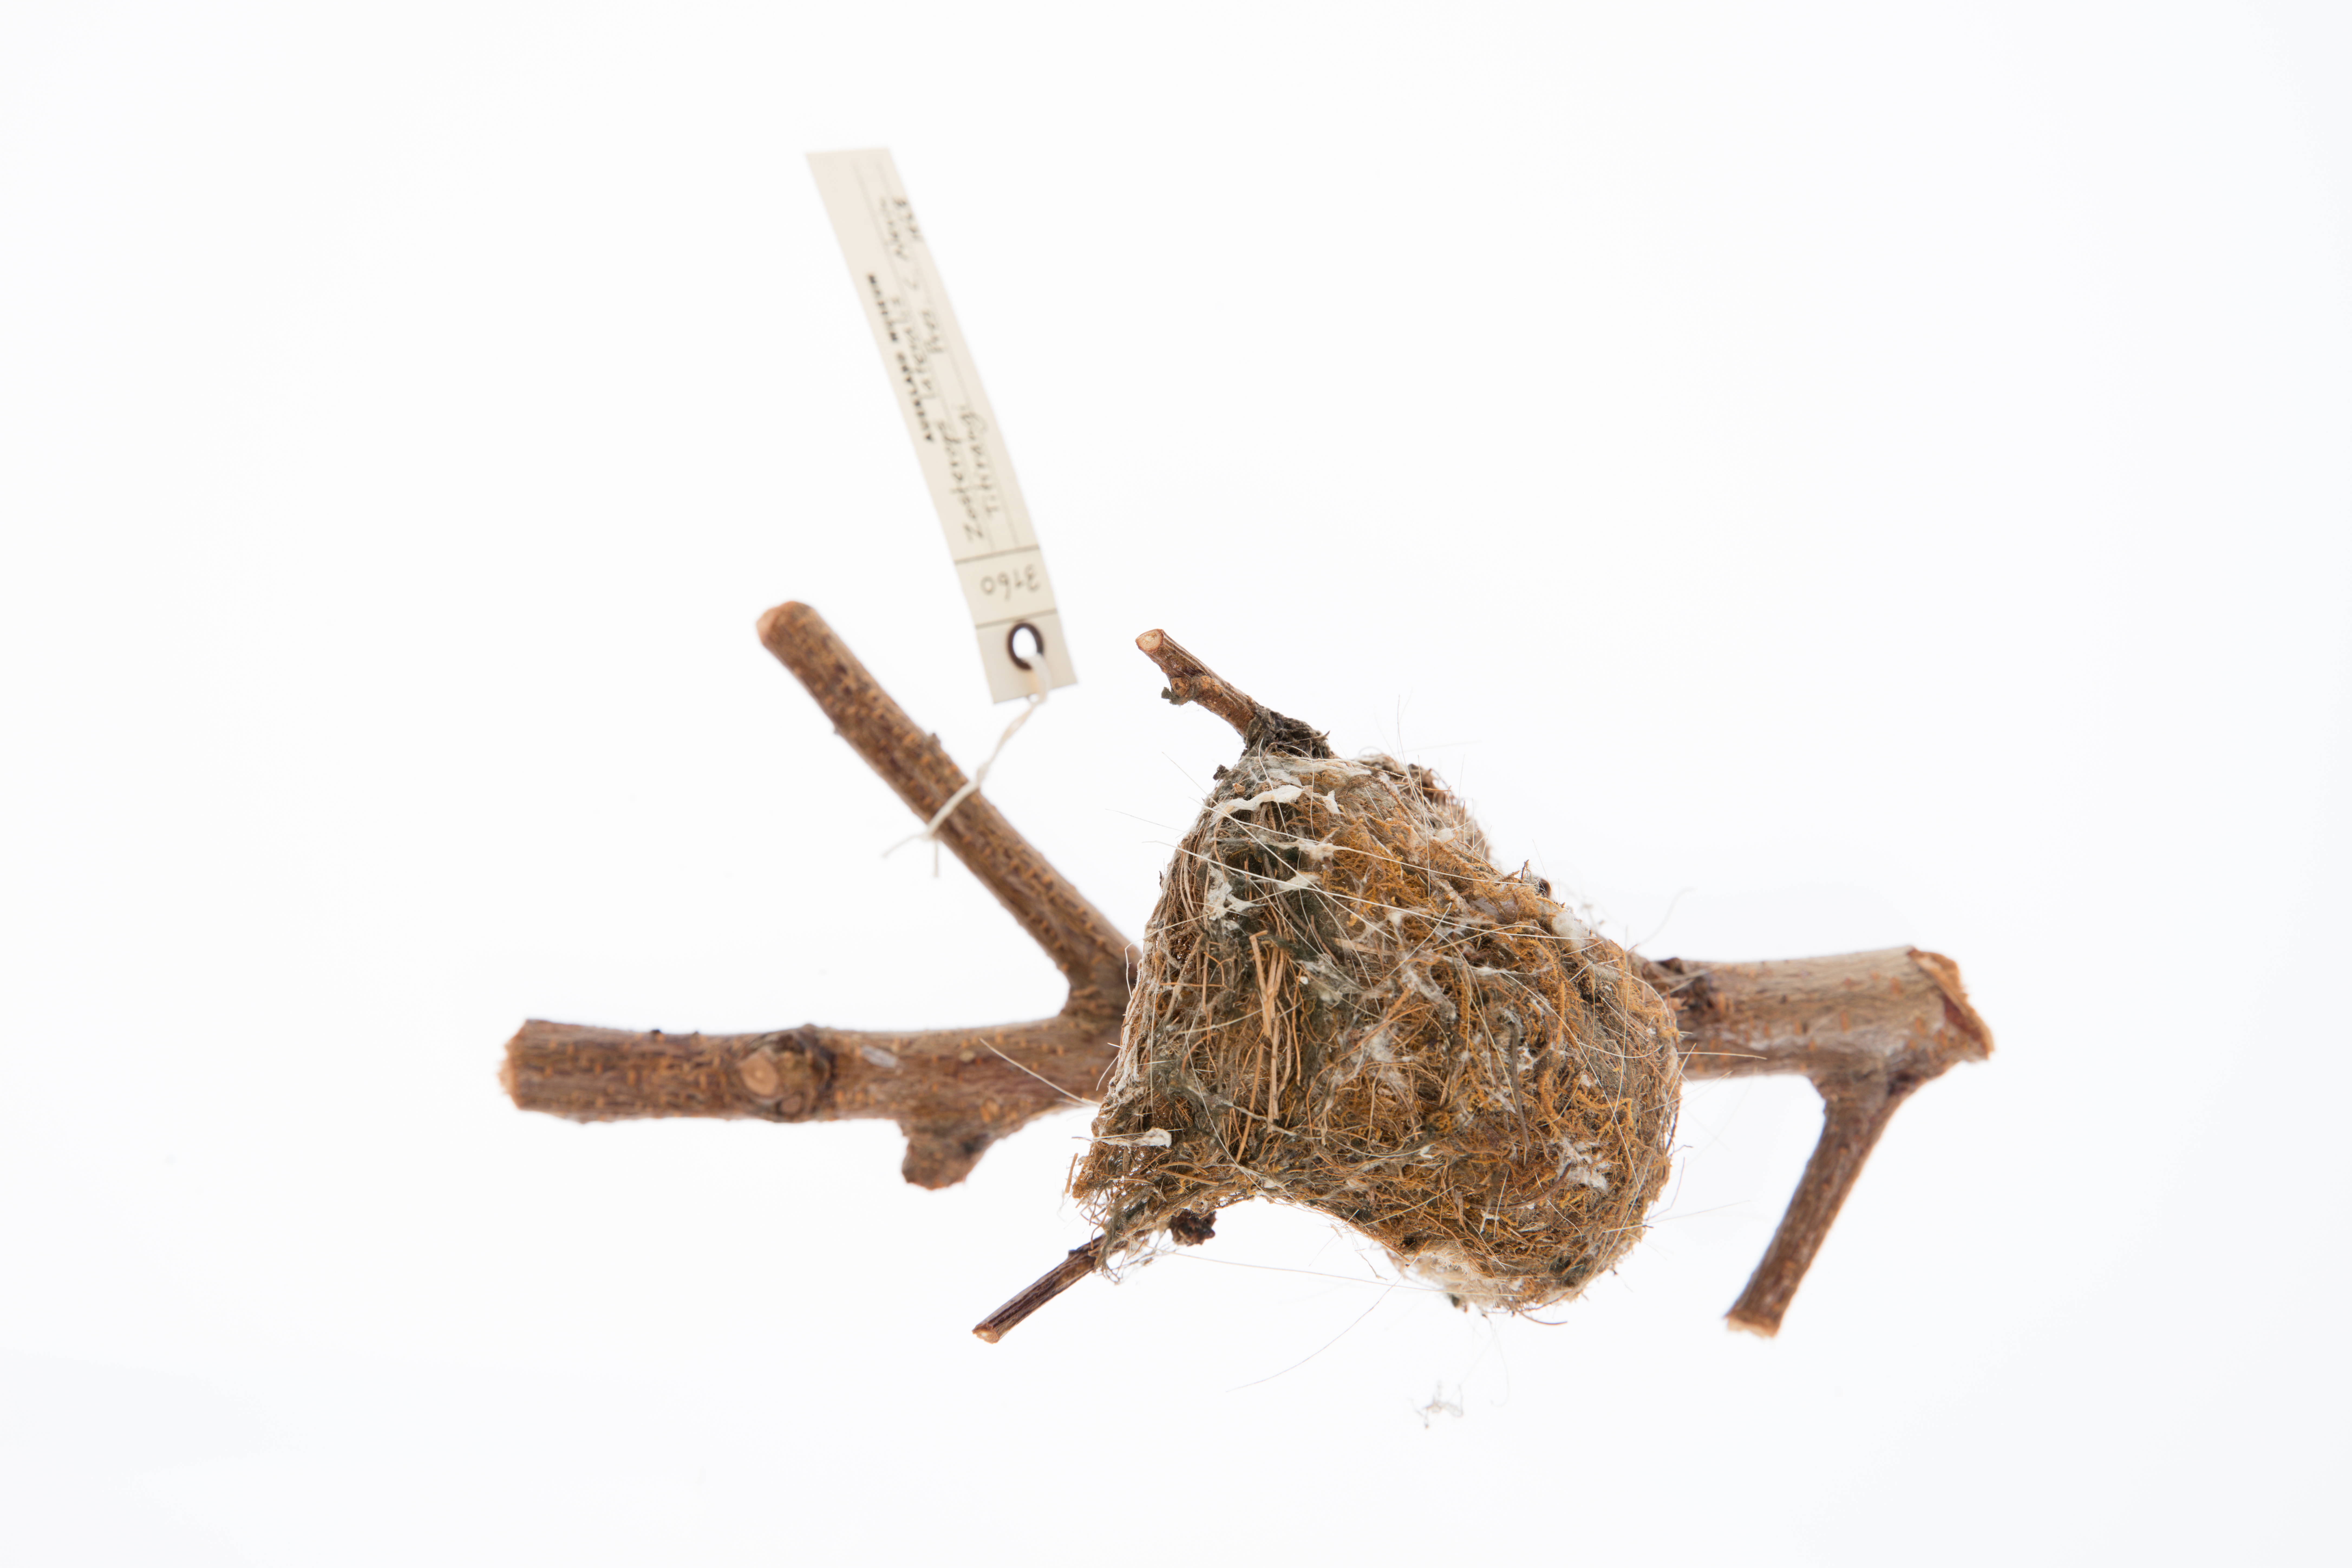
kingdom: Animalia
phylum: Chordata
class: Aves
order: Passeriformes
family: Zosteropidae
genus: Zosterops
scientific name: Zosterops lateralis
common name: Silvereye
